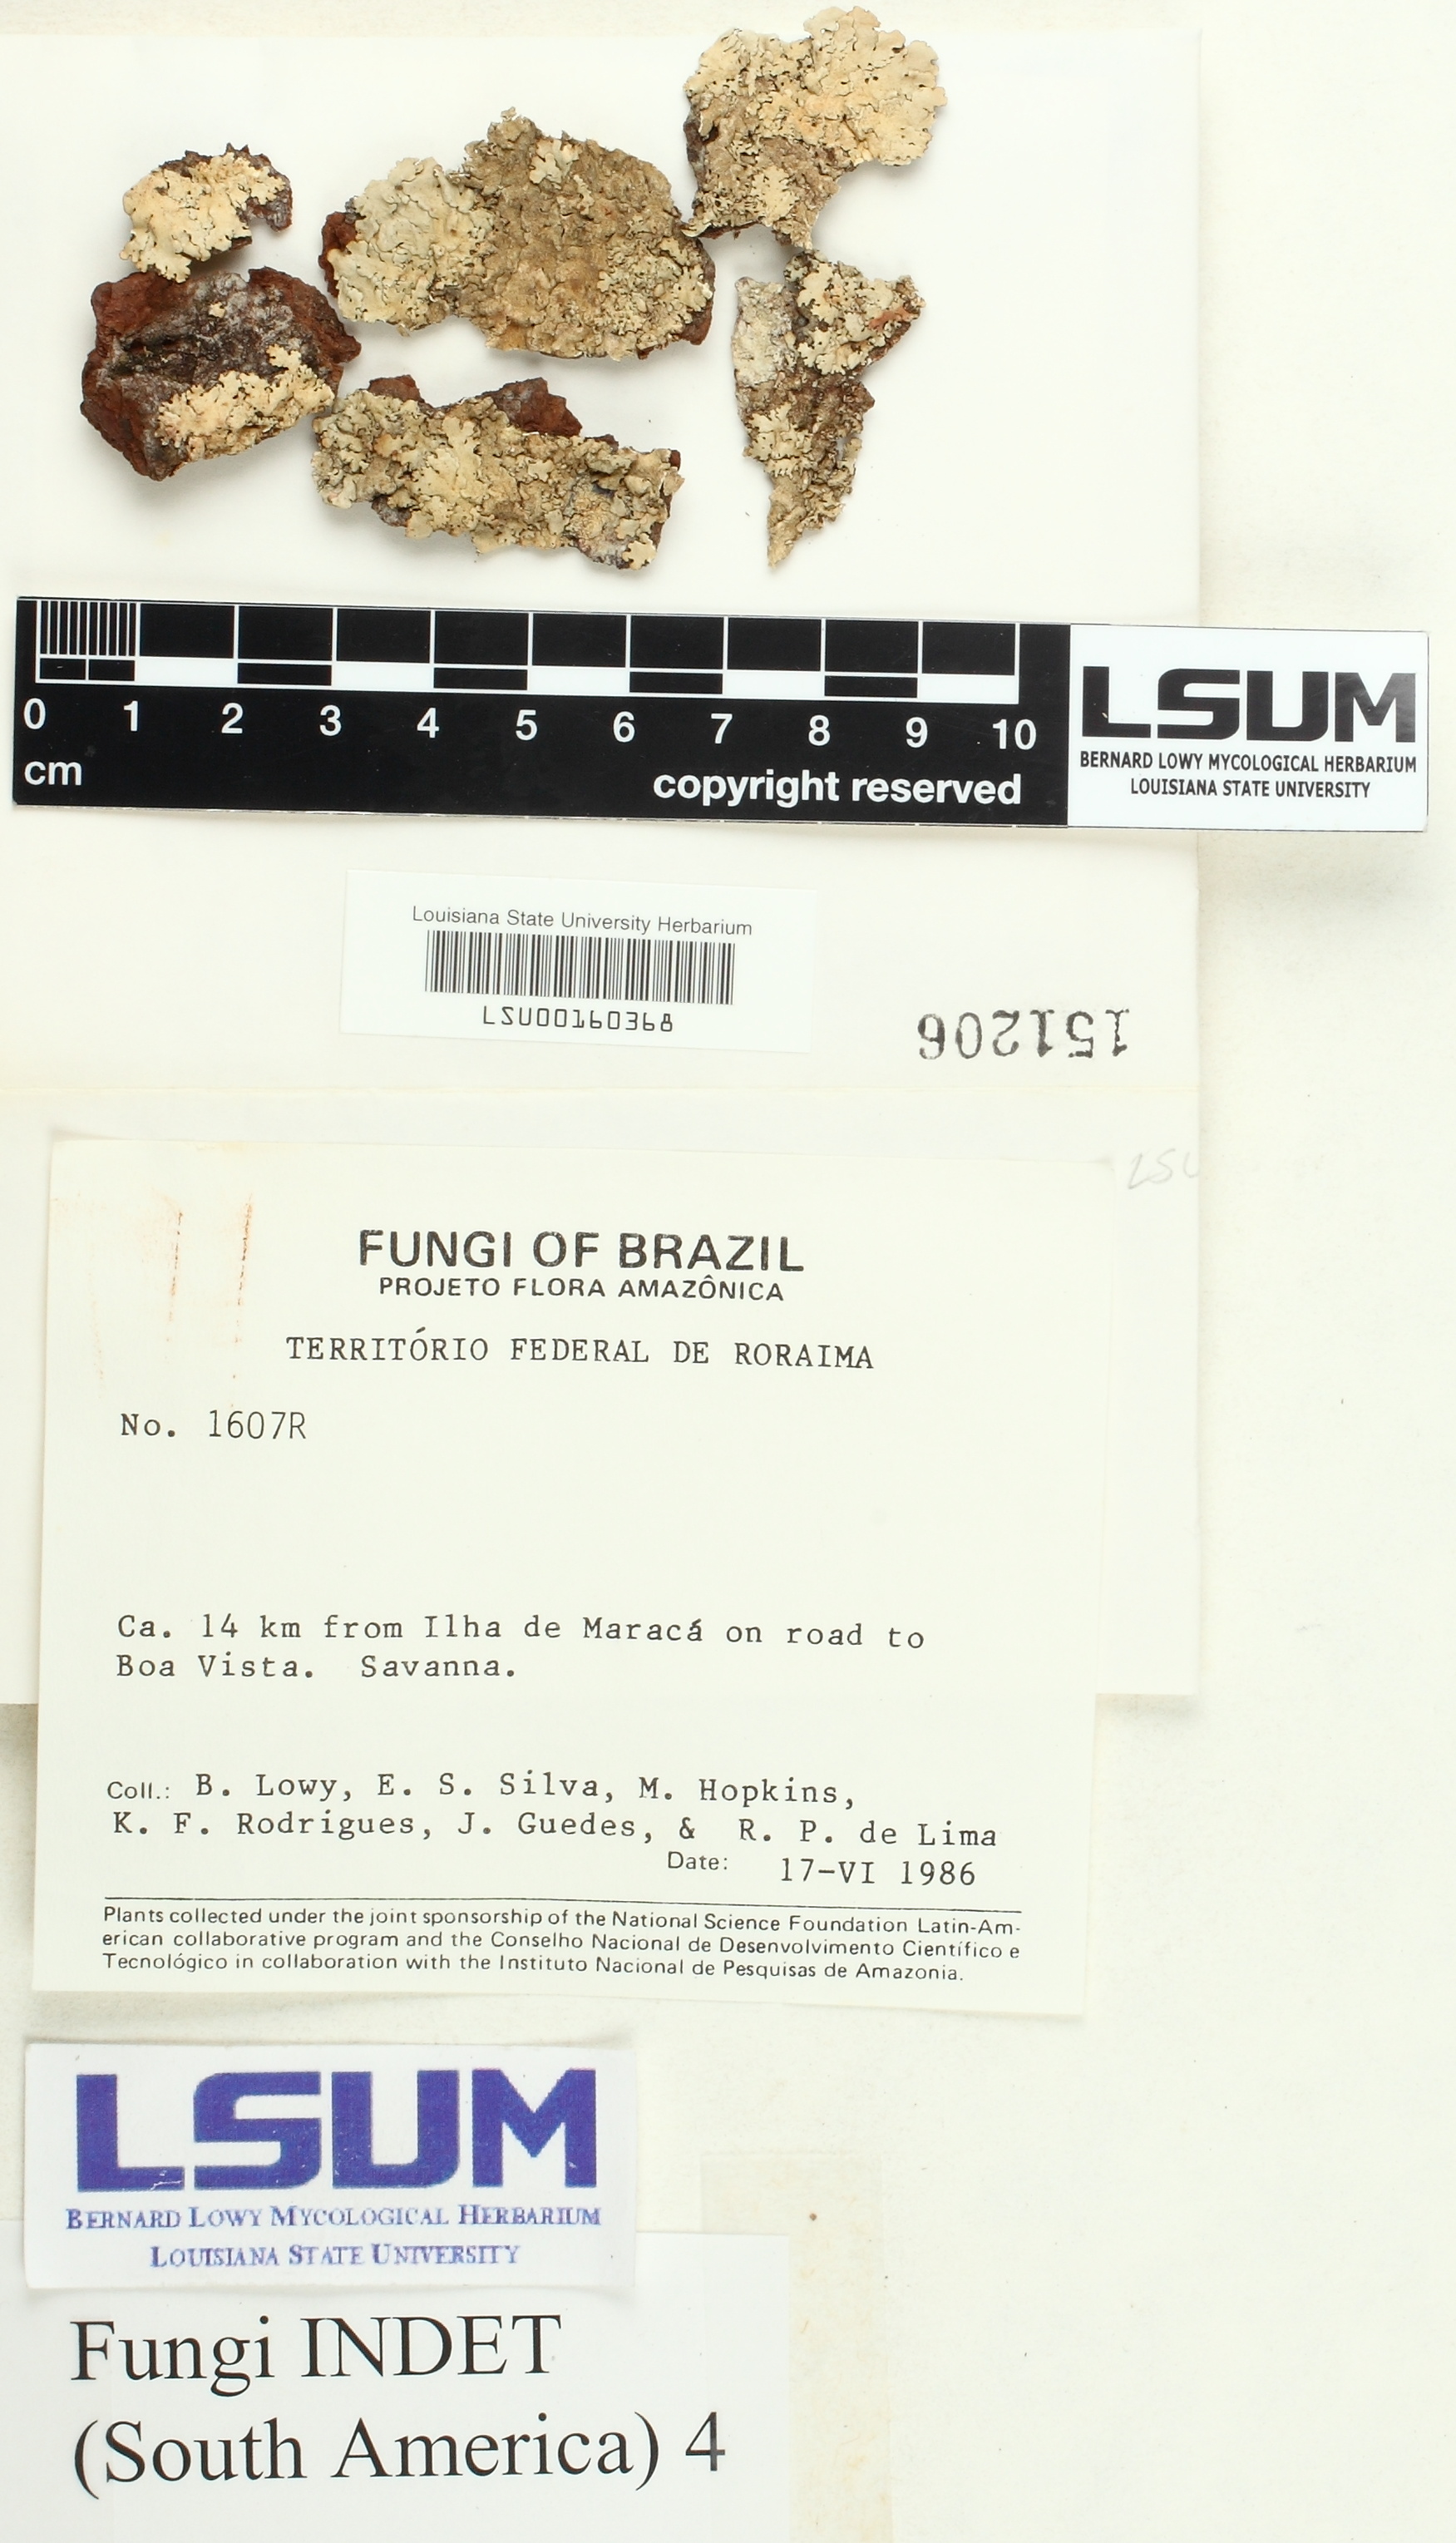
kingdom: Fungi
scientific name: Fungi
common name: Fungi
